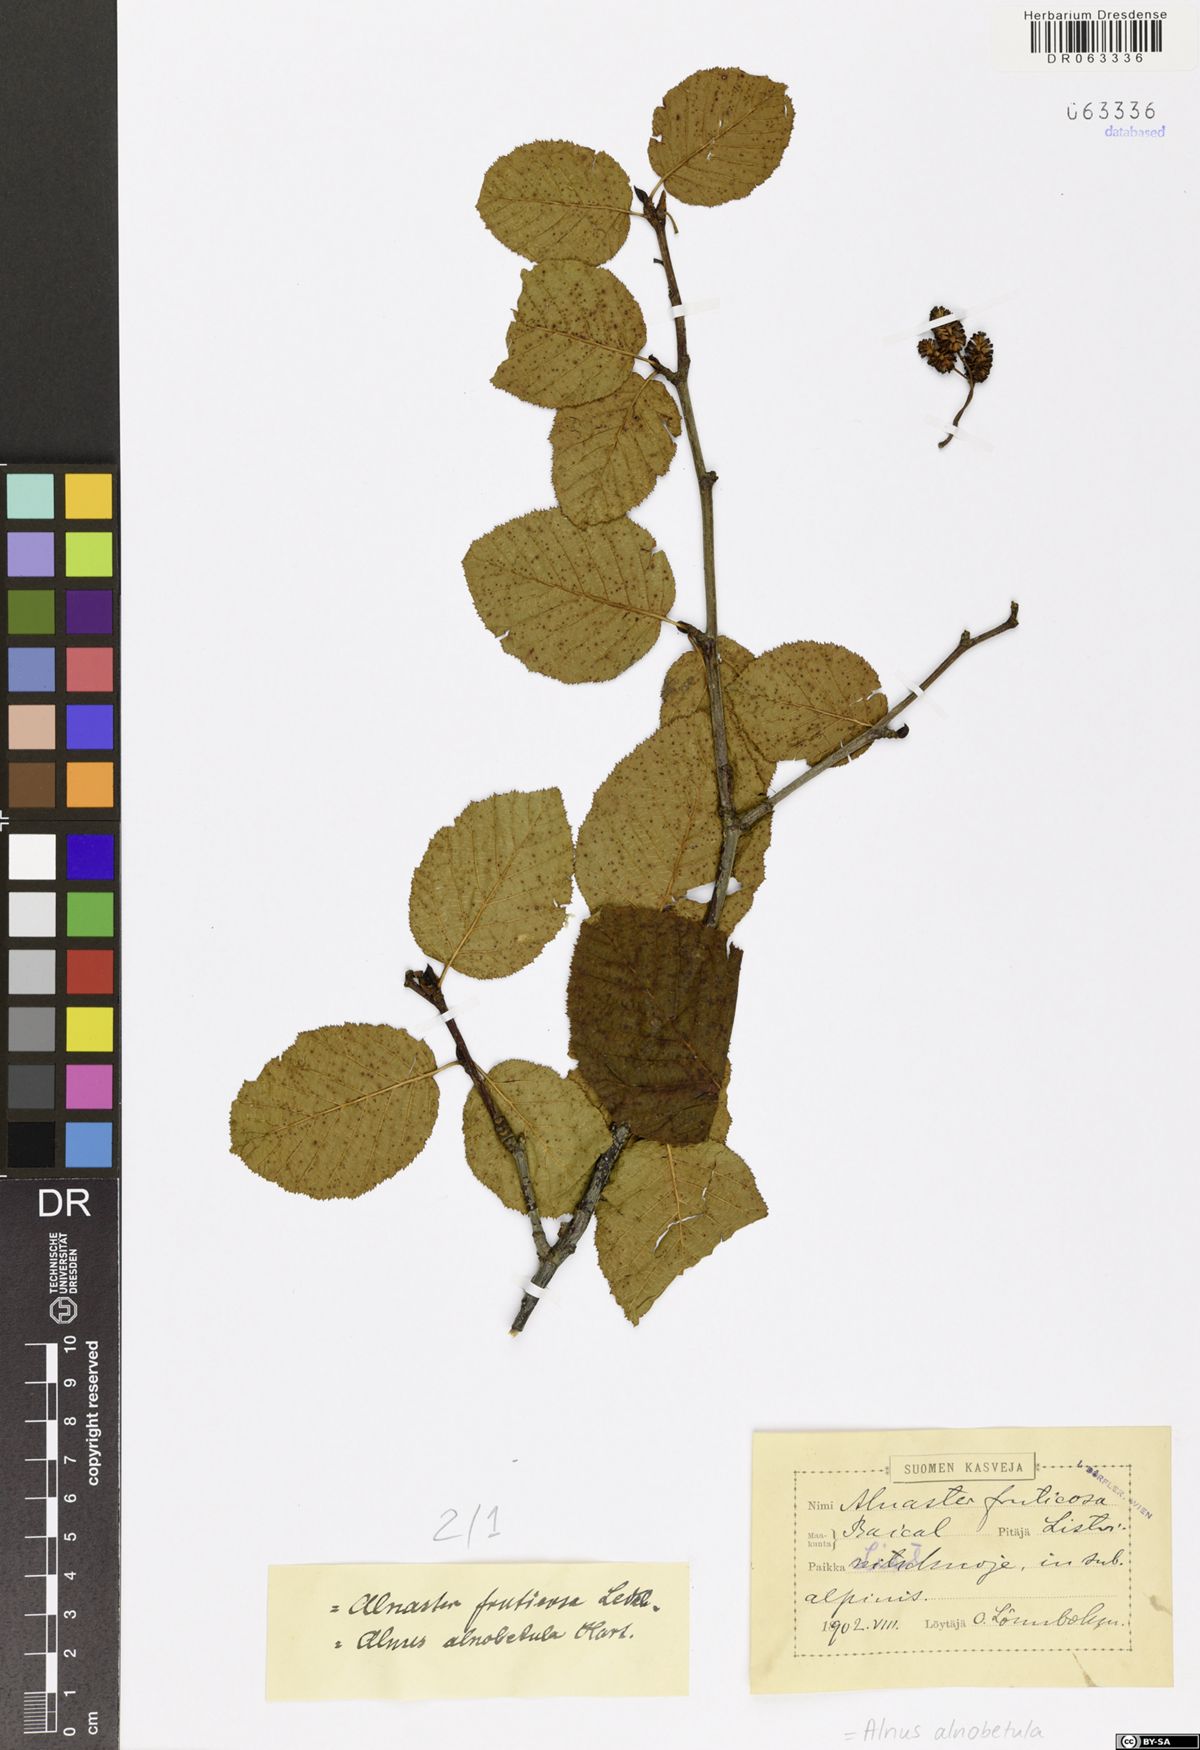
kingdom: Plantae
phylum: Tracheophyta
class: Magnoliopsida
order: Fagales
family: Betulaceae
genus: Alnus
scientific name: Alnus alnobetula
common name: Green alder
